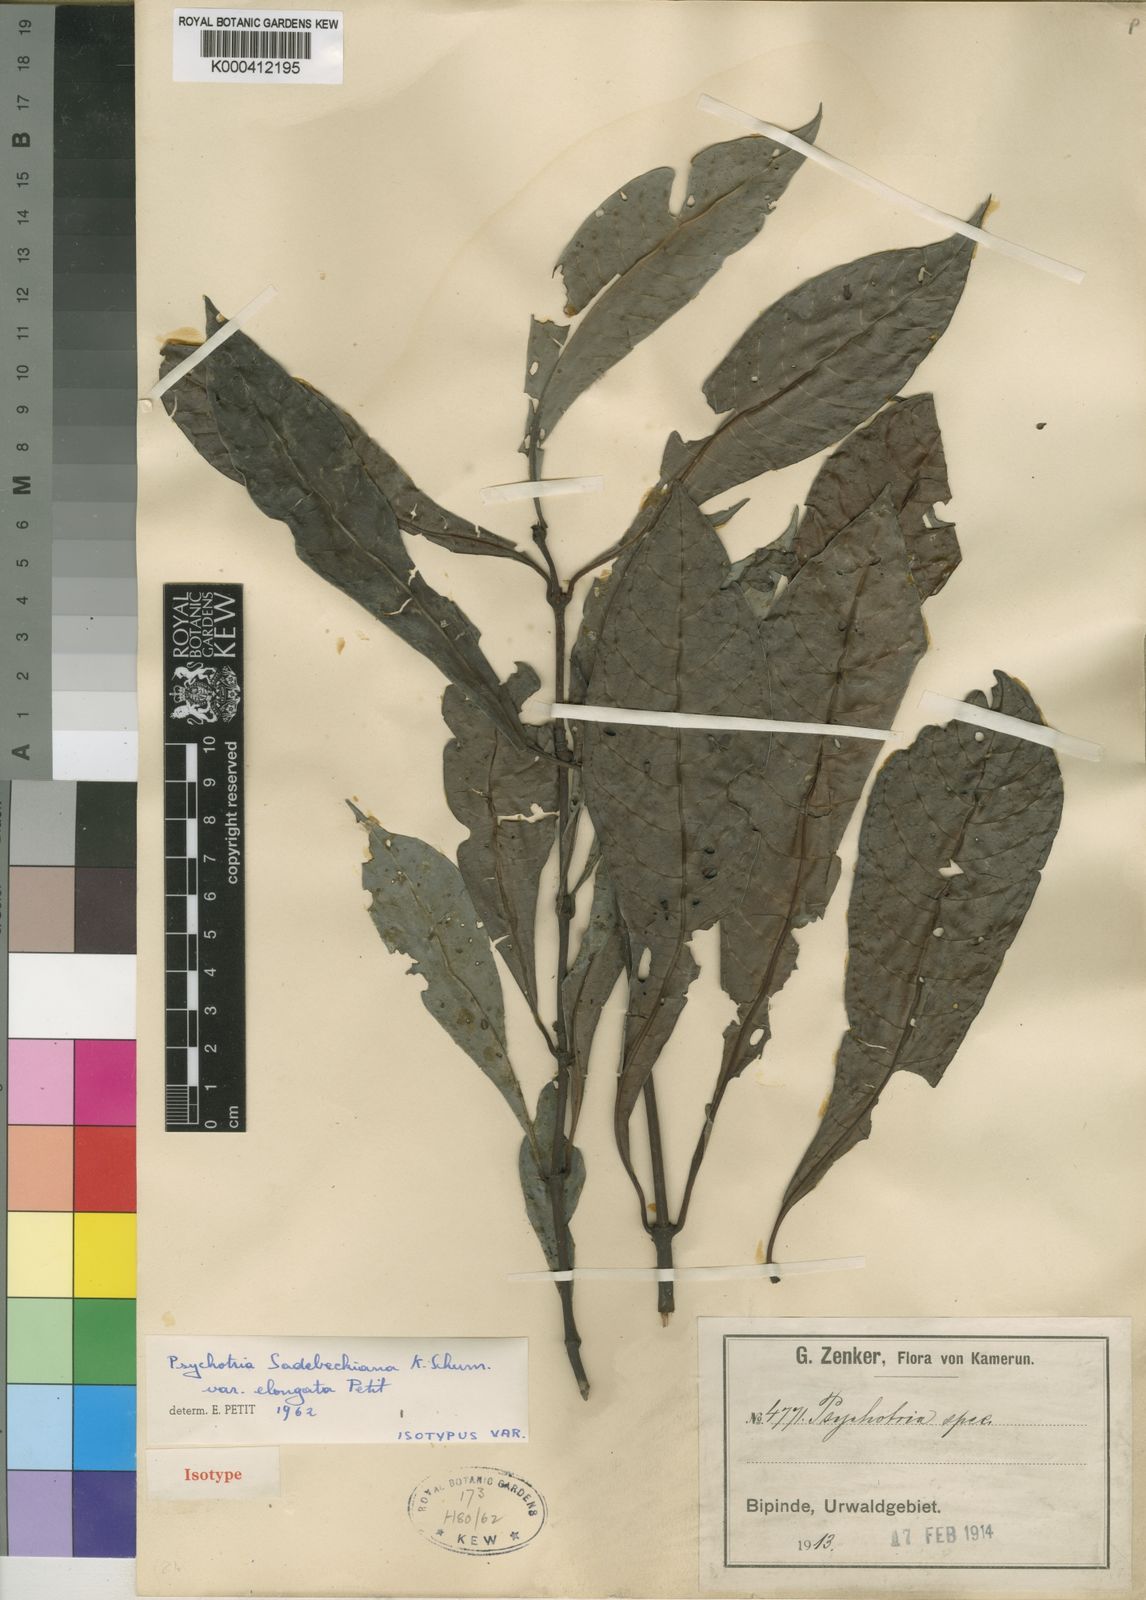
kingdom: Plantae
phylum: Tracheophyta
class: Magnoliopsida
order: Gentianales
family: Rubiaceae
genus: Psychotria
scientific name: Psychotria foliosa
